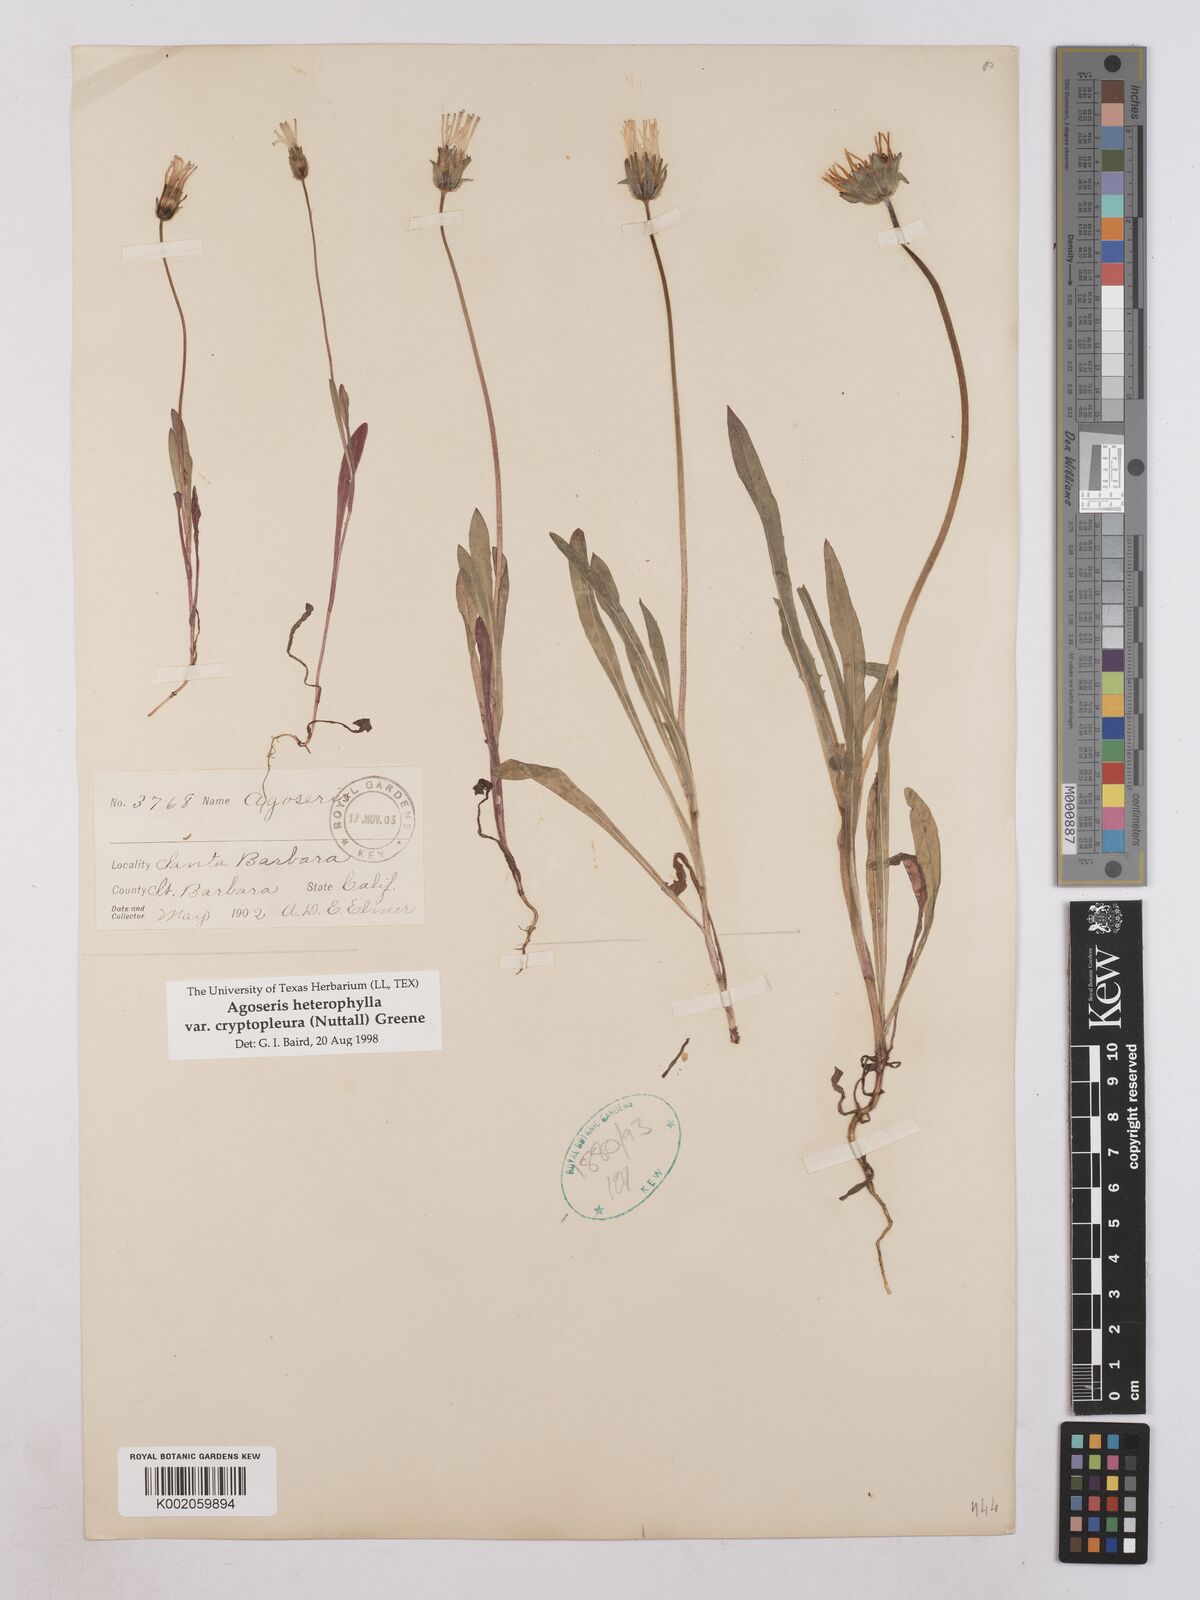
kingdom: Plantae
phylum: Tracheophyta
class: Magnoliopsida
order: Asterales
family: Asteraceae
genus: Agoseris
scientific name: Agoseris heterophylla
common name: Annual agoseris
